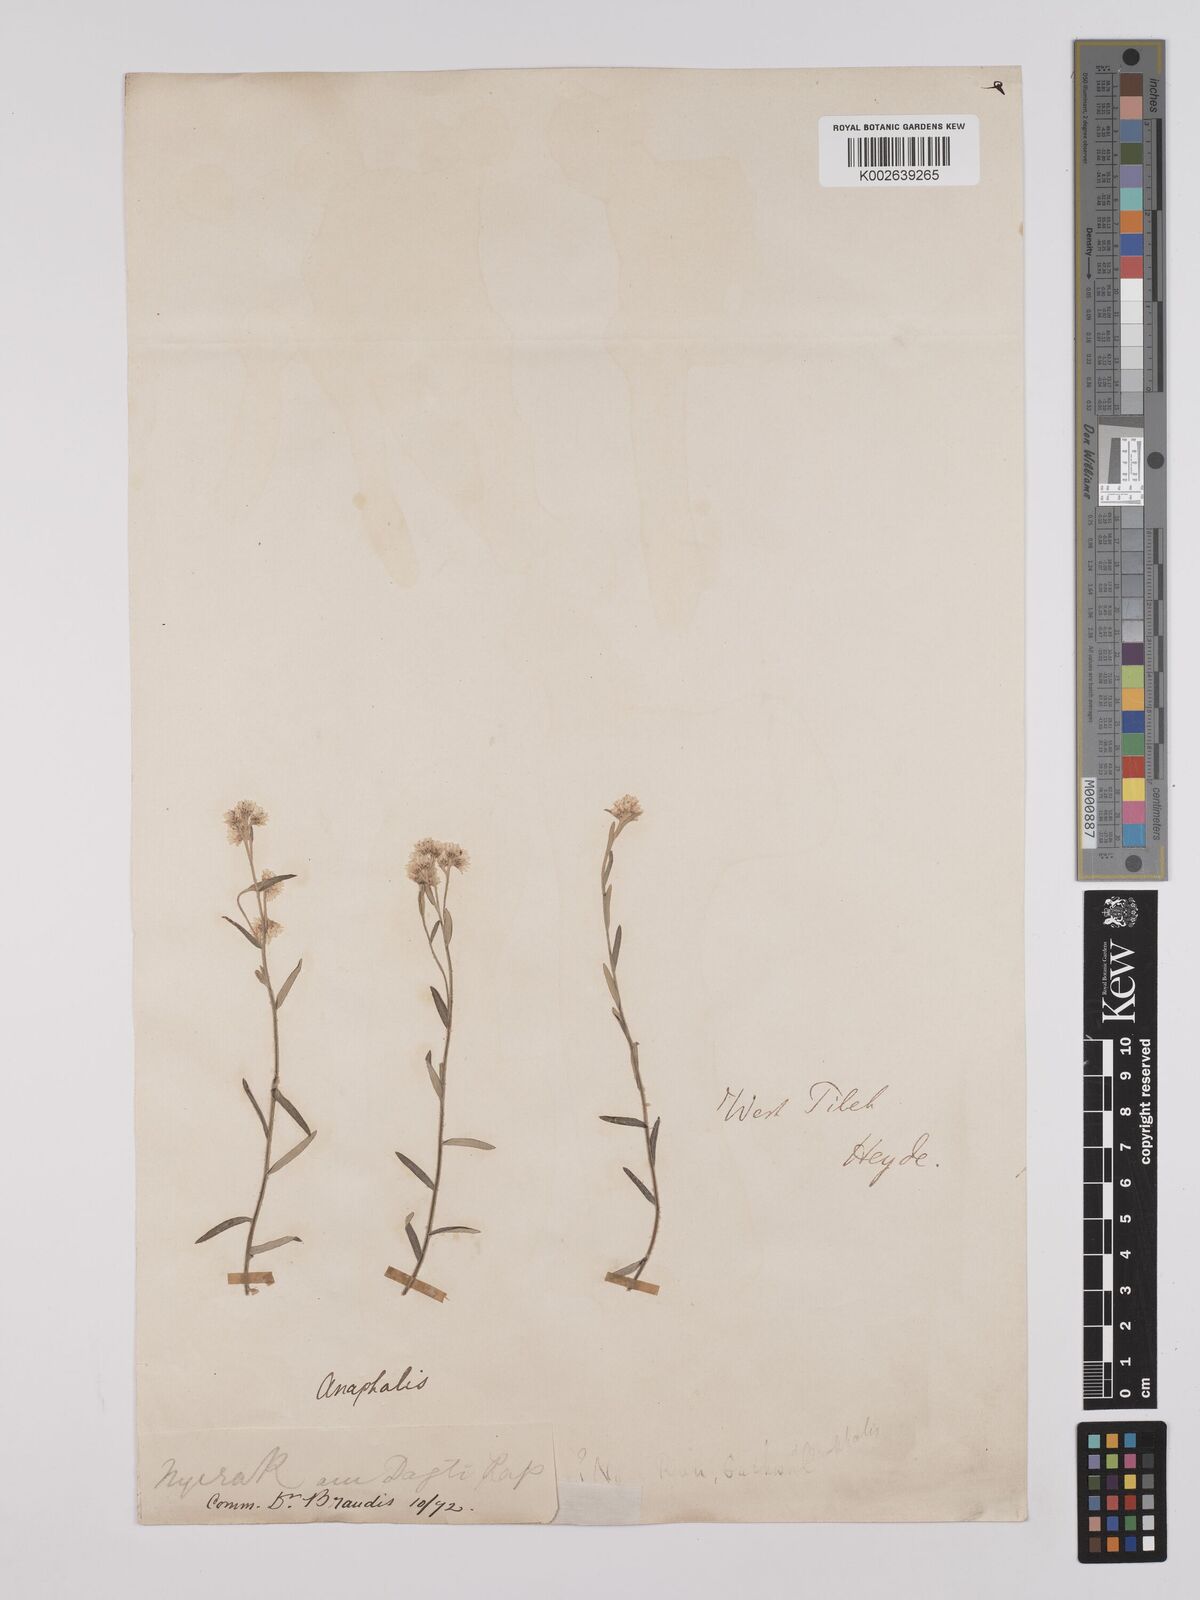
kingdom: Plantae
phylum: Tracheophyta
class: Magnoliopsida
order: Asterales
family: Asteraceae
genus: Anaphalis
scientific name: Anaphalis virgata
